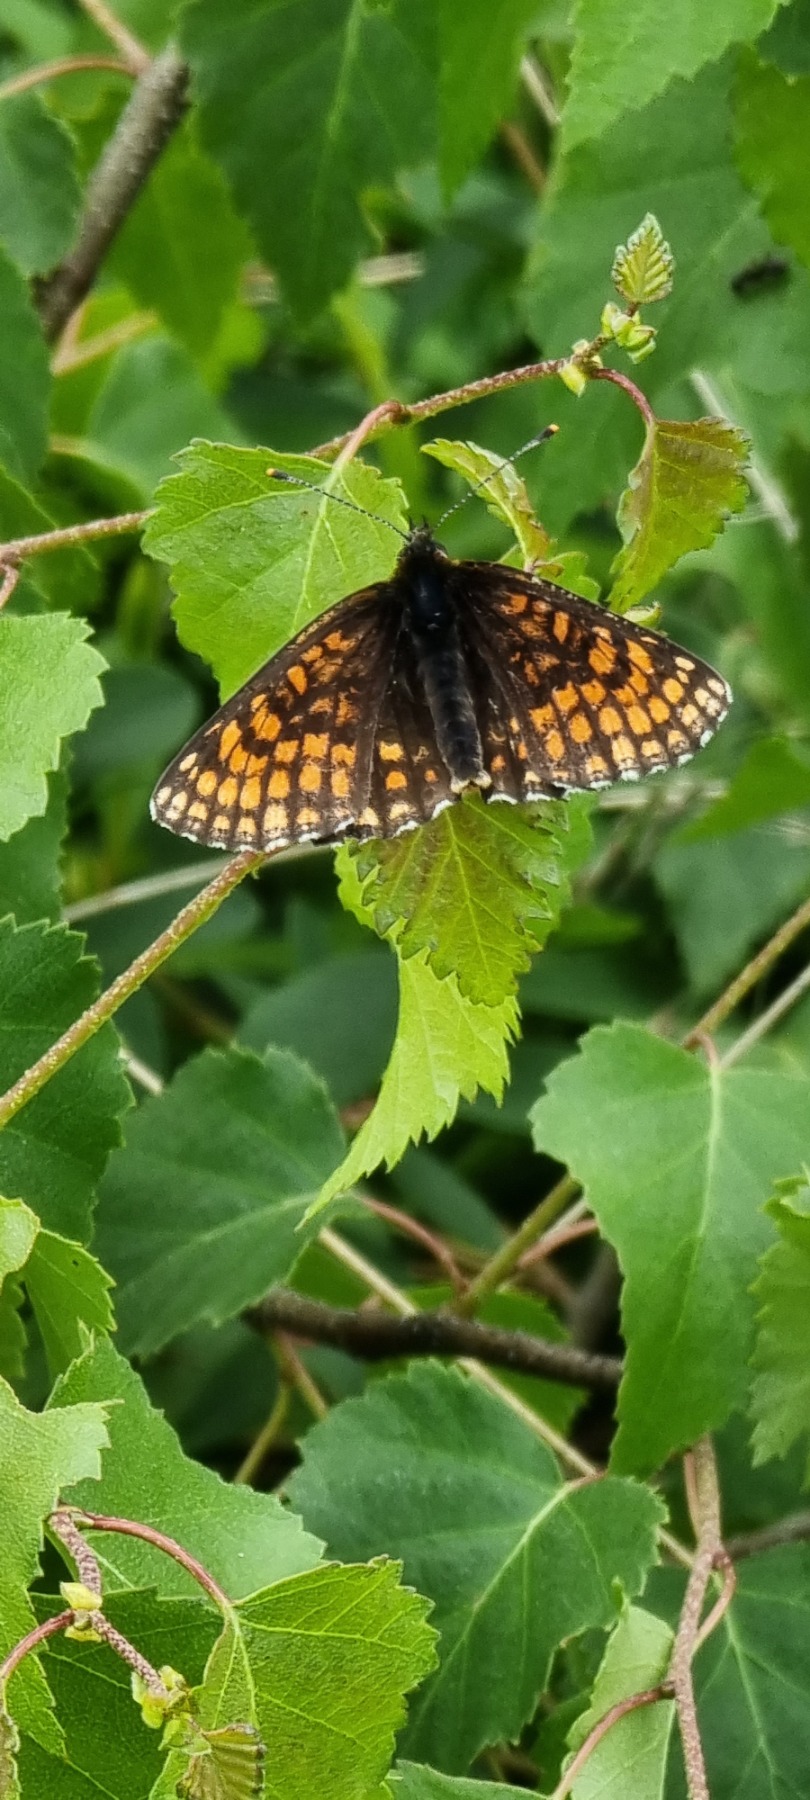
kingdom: Animalia
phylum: Arthropoda
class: Insecta
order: Lepidoptera
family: Nymphalidae
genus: Mellicta
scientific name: Mellicta athalia
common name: Brun pletvinge
